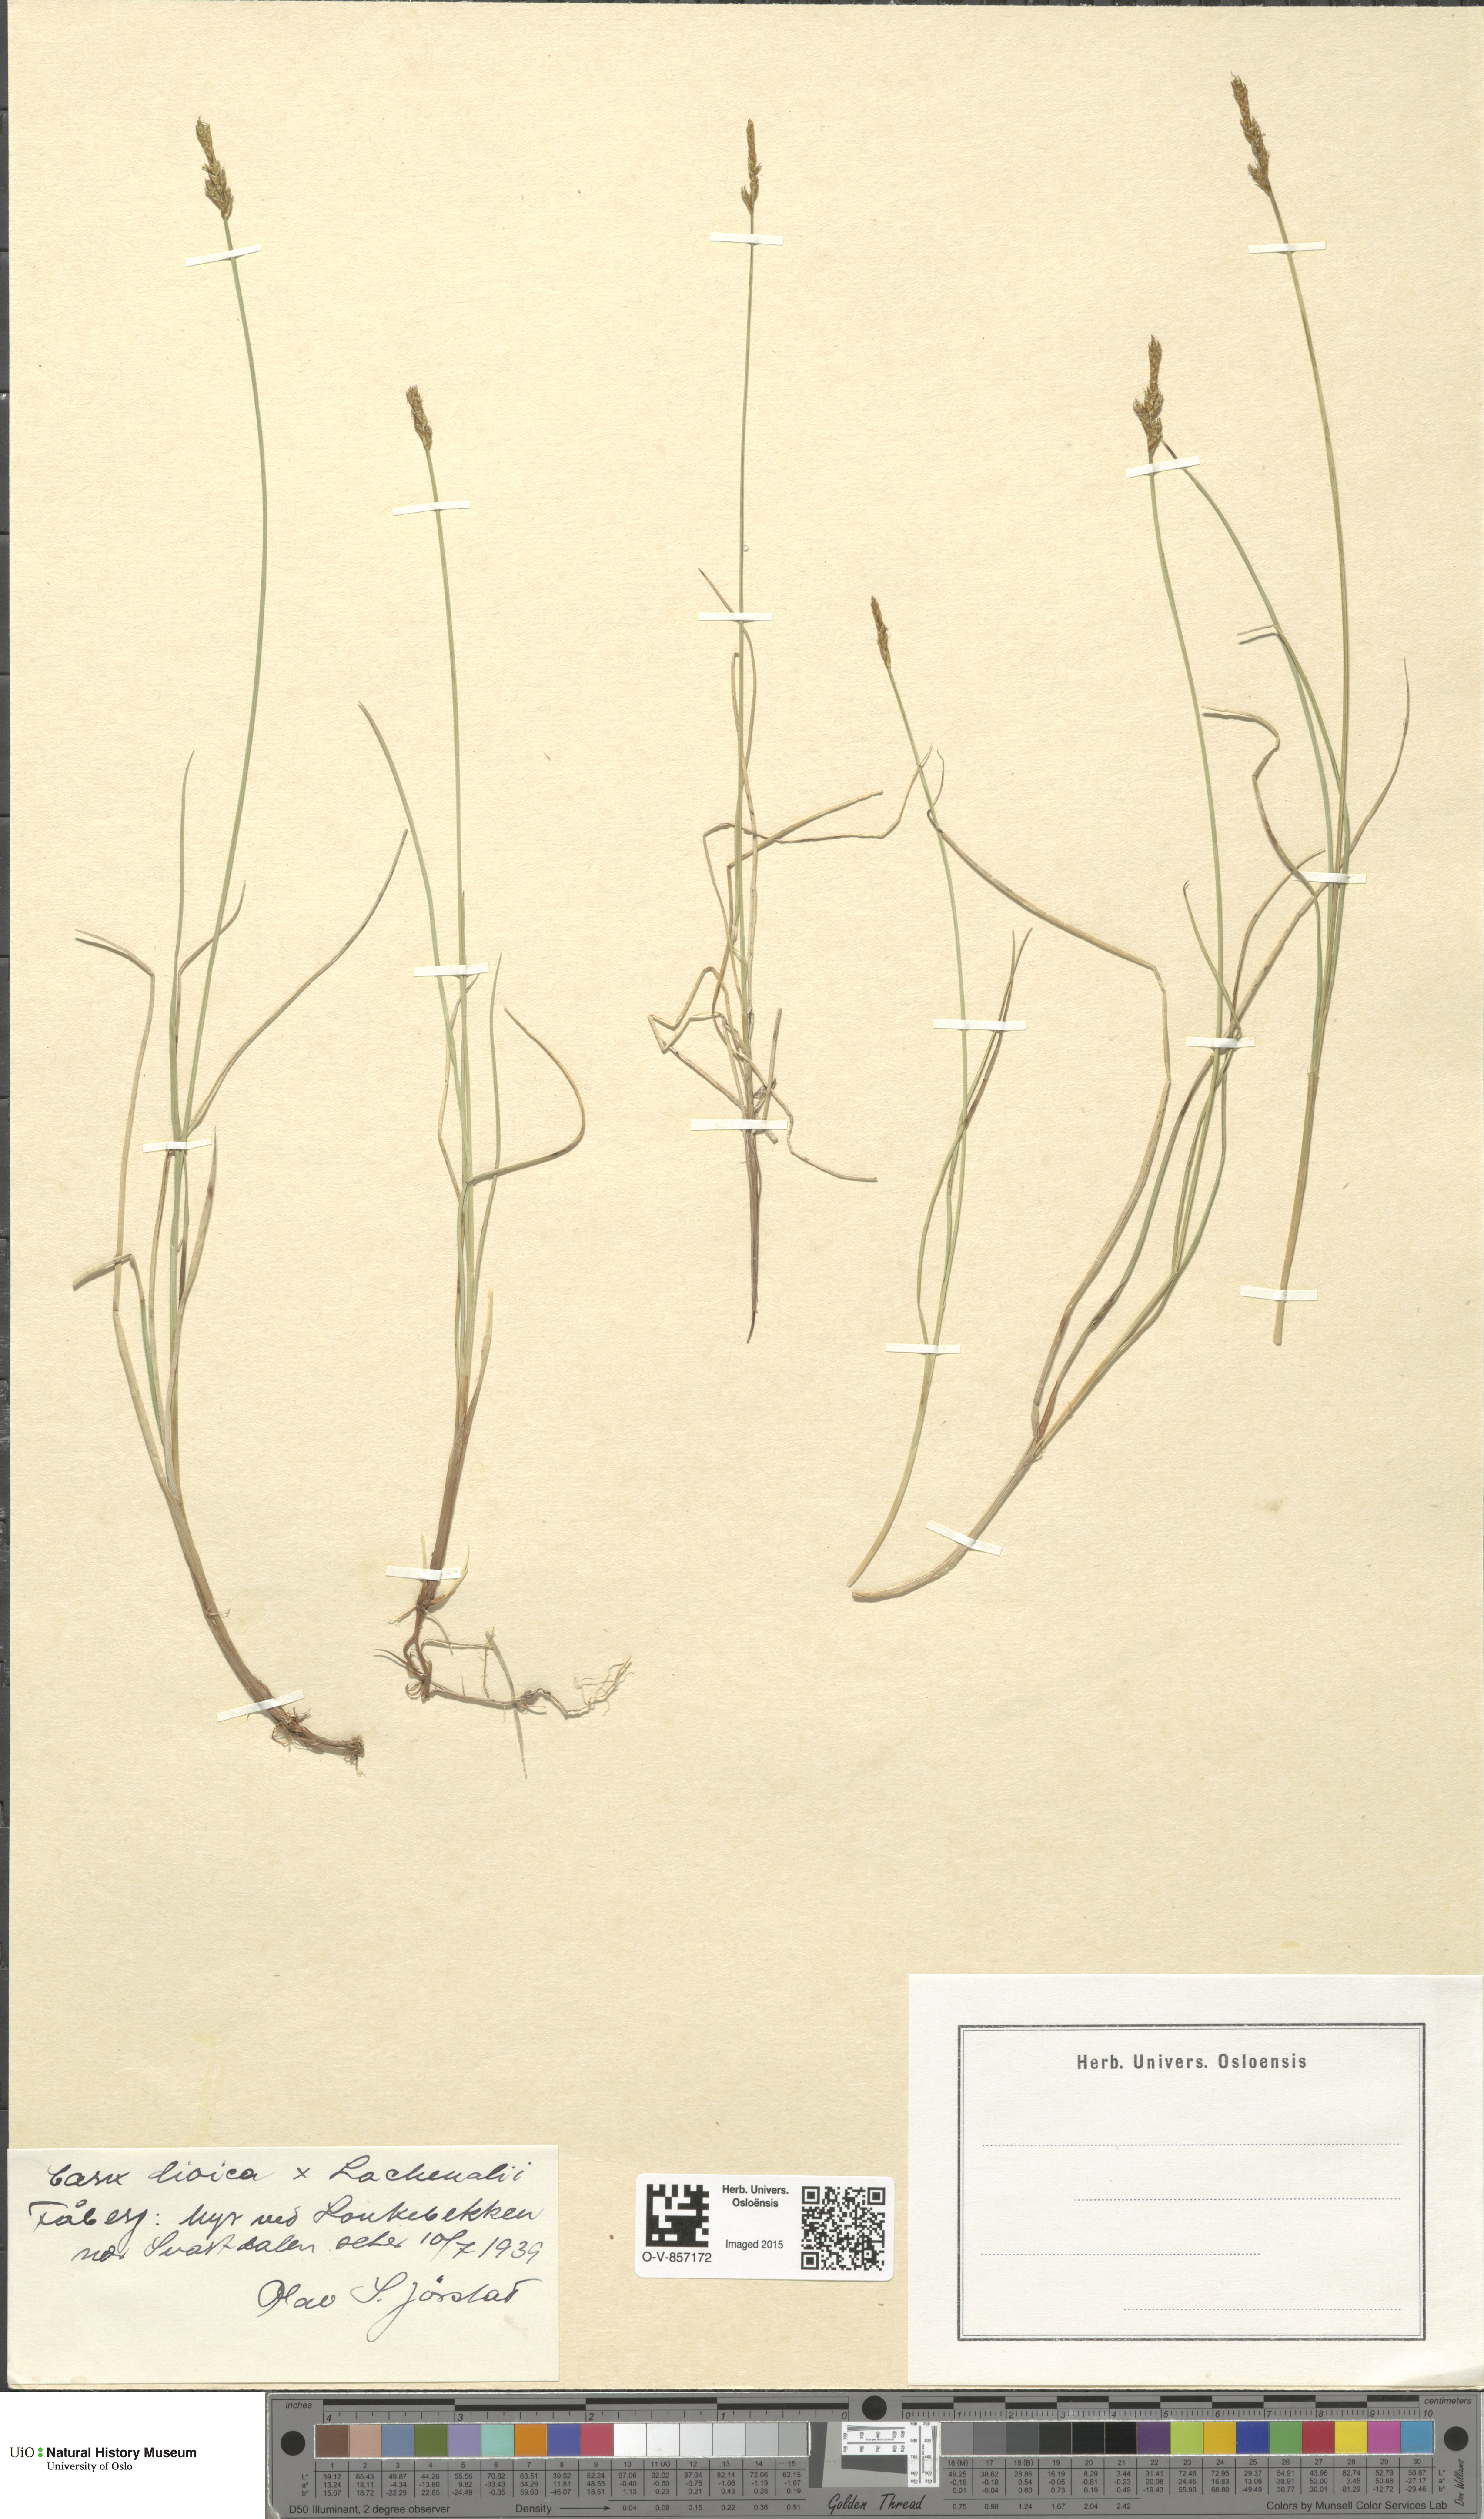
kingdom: Plantae
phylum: Tracheophyta
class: Liliopsida
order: Poales
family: Cyperaceae
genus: Carex
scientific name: Carex
